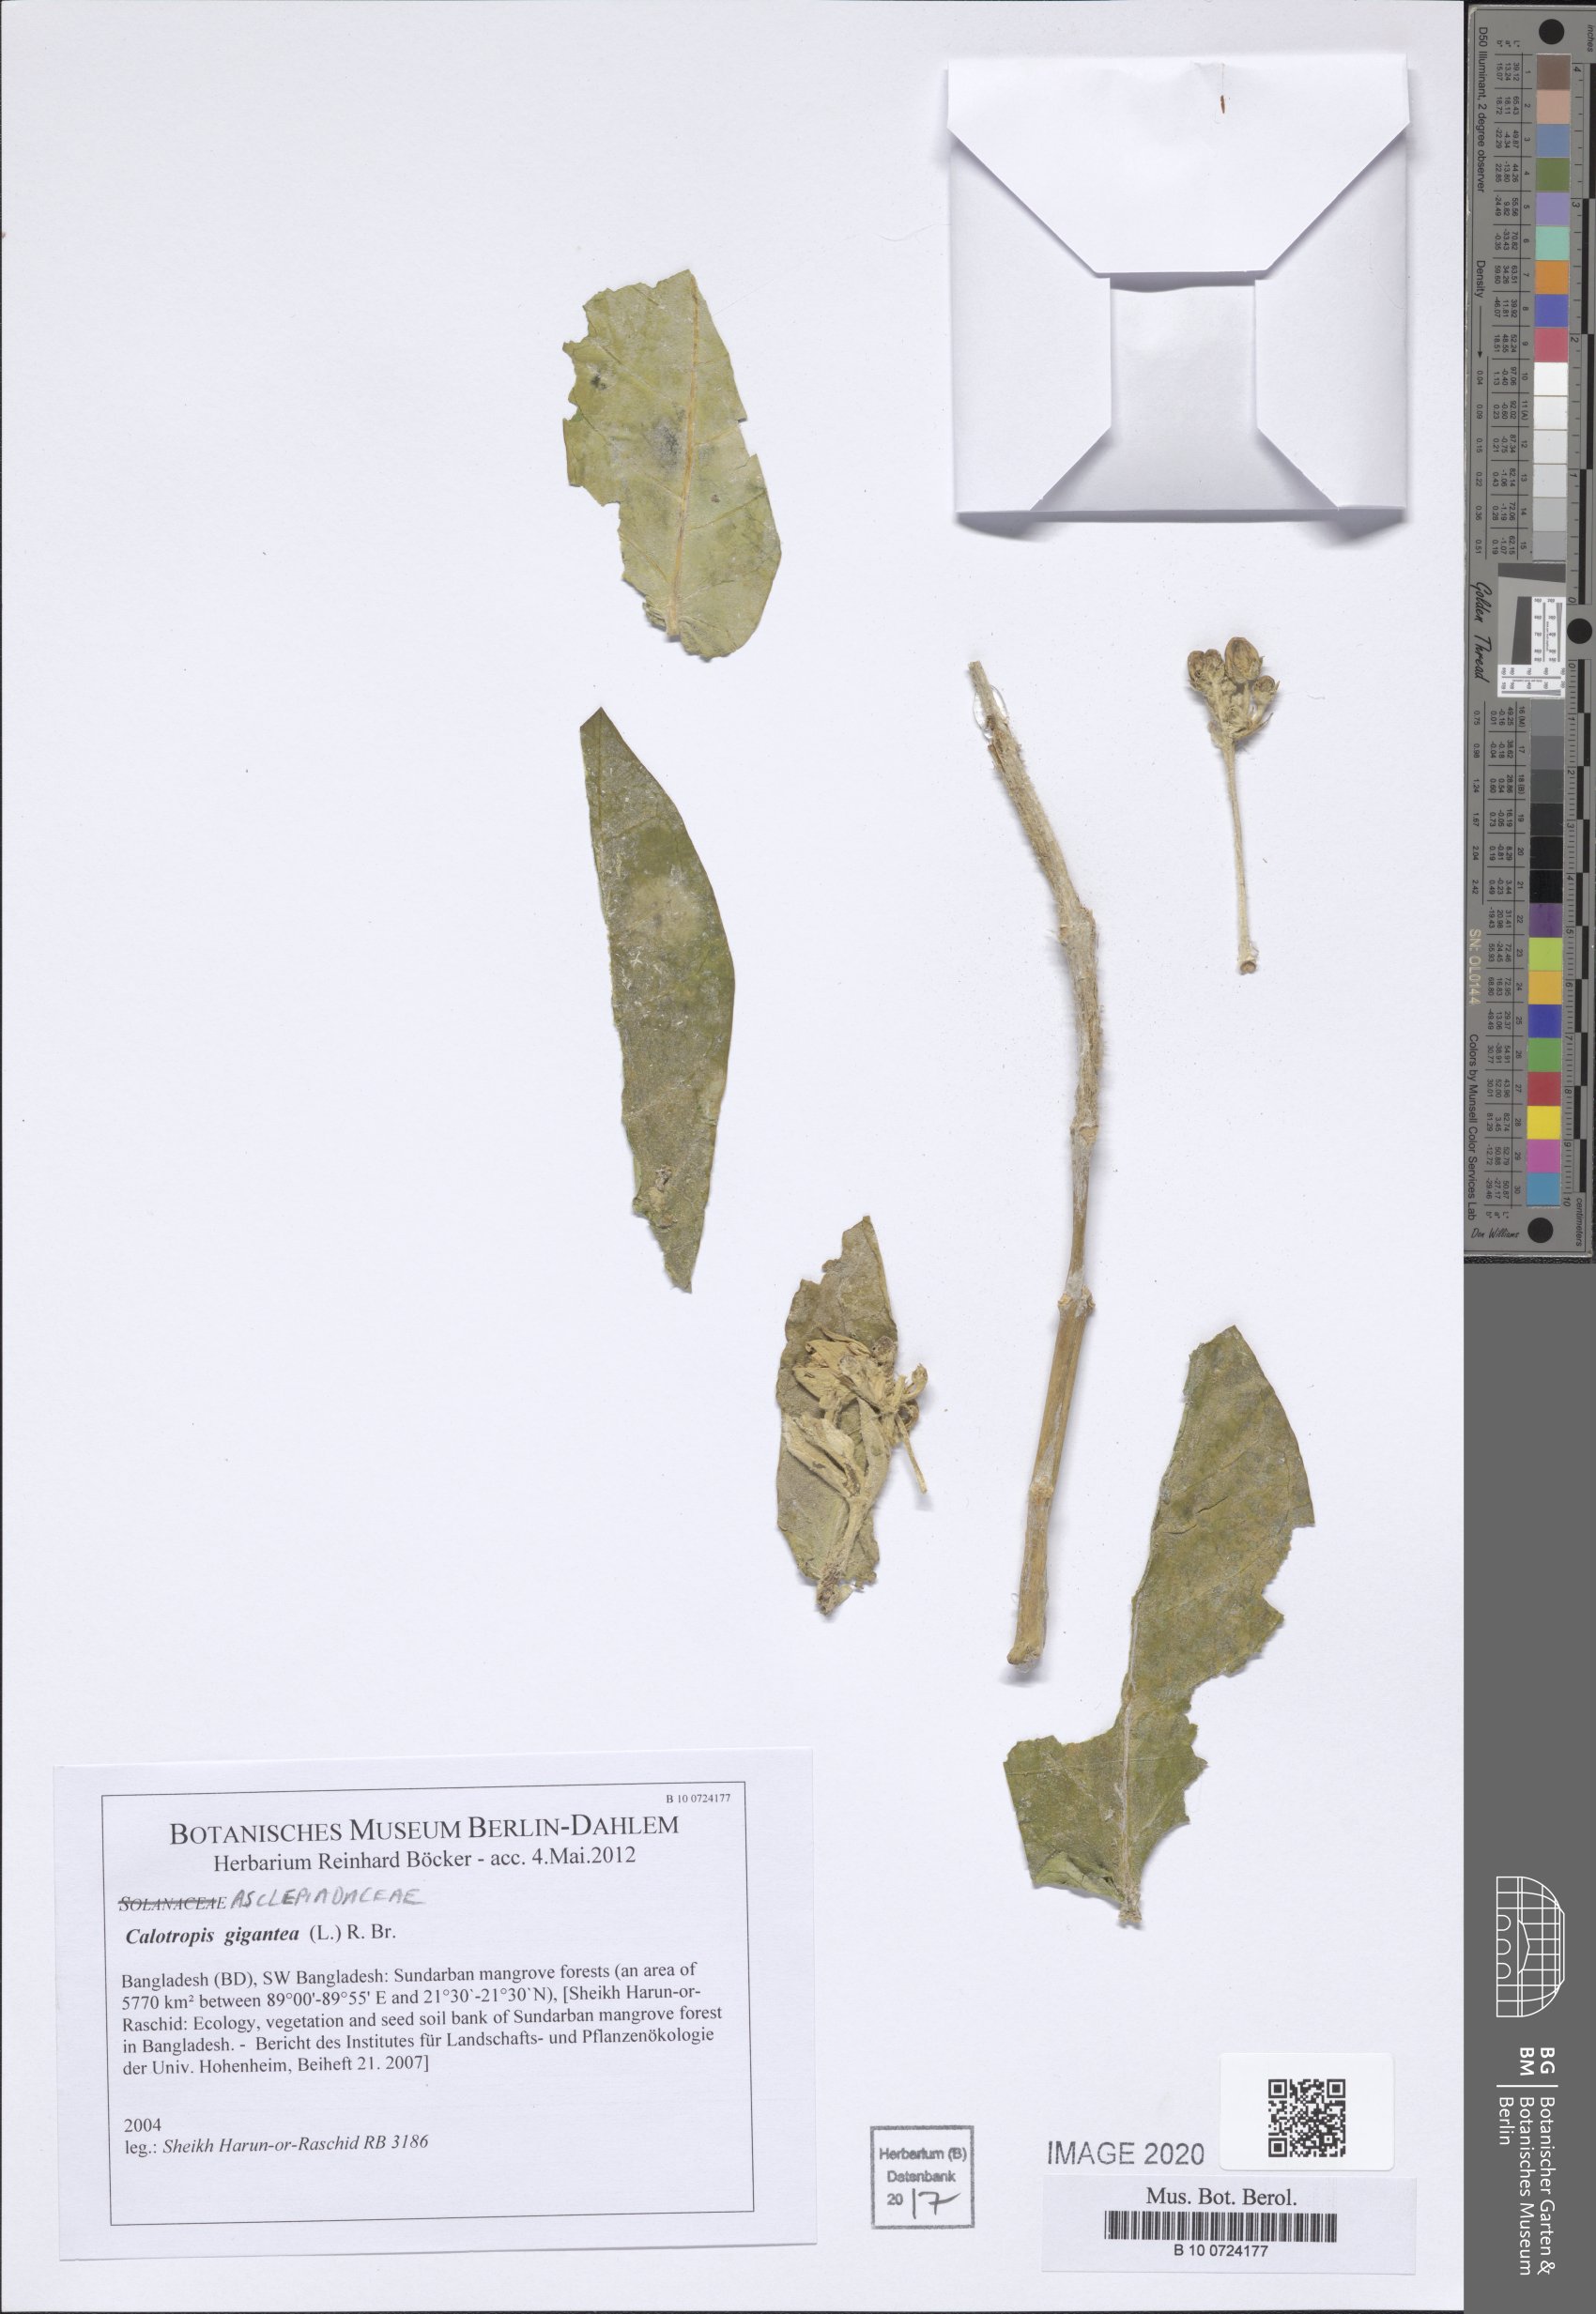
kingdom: Plantae
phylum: Tracheophyta
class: Magnoliopsida
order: Gentianales
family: Apocynaceae
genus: Calotropis
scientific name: Calotropis gigantea
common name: Crown flower
